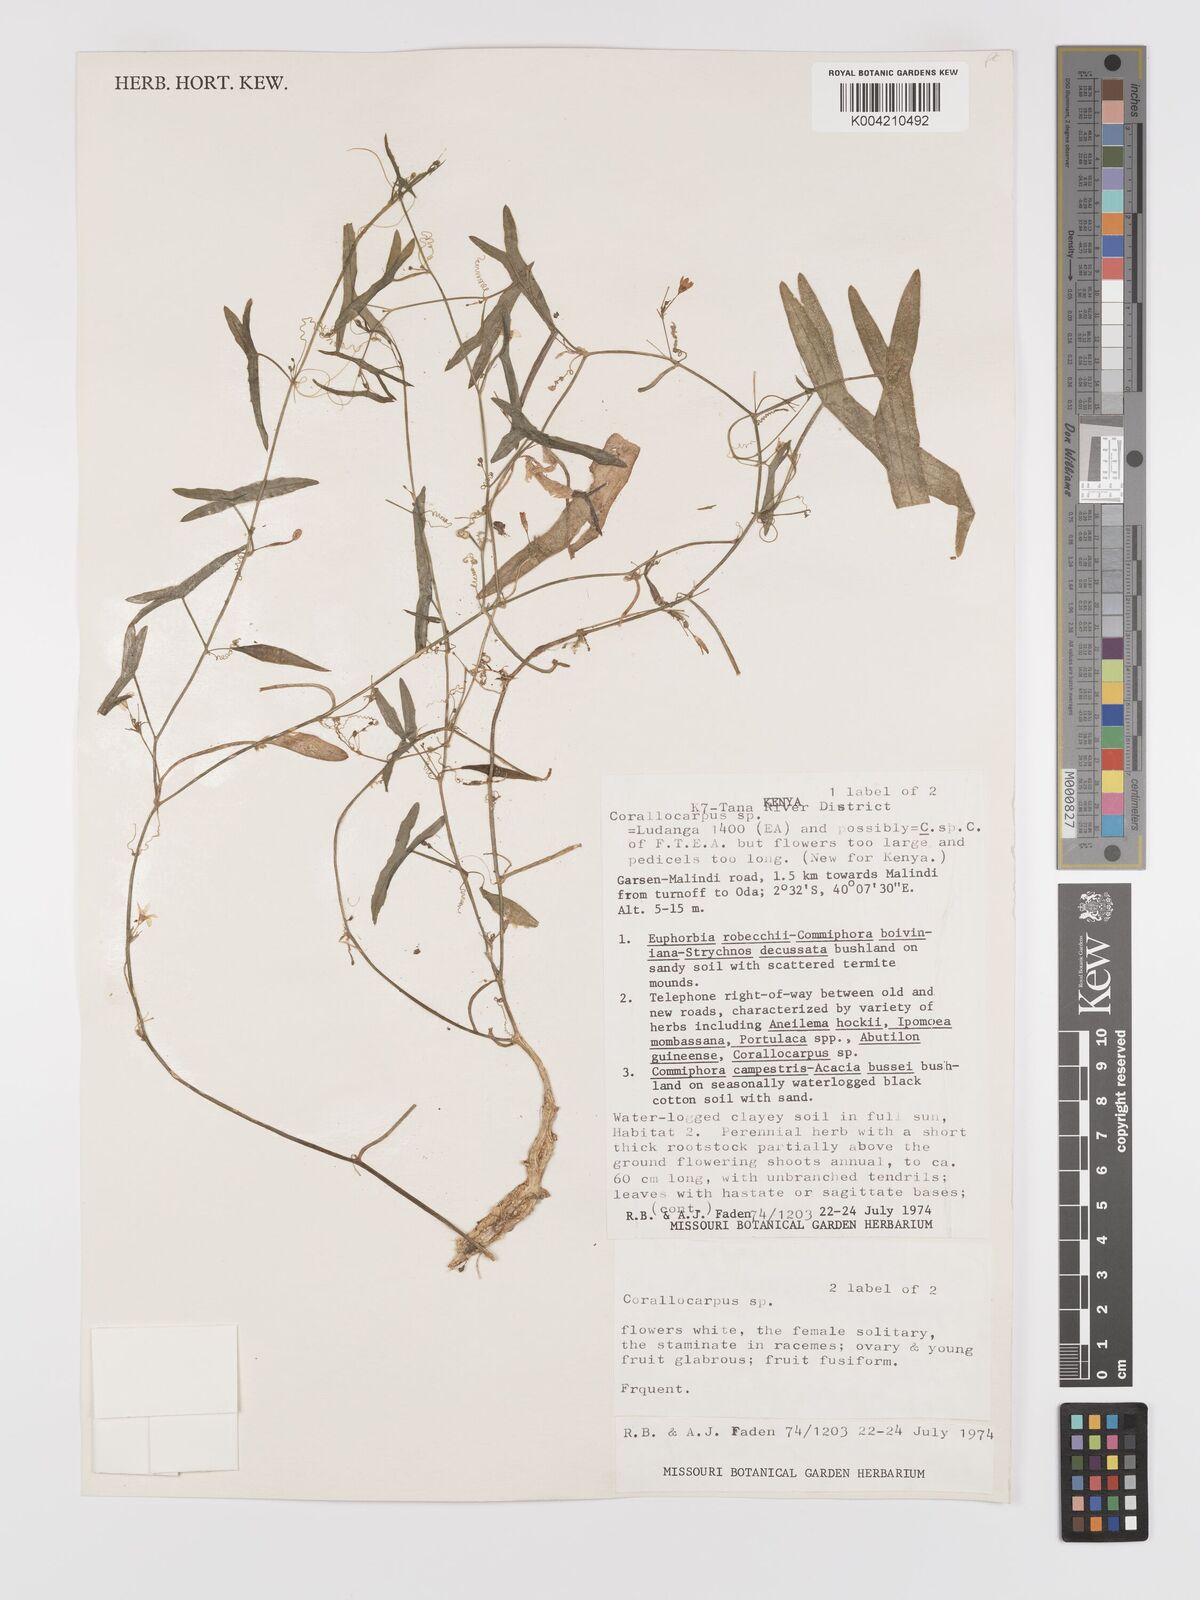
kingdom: Plantae
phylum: Tracheophyta
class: Magnoliopsida
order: Cucurbitales
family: Cucurbitaceae
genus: Zehneria
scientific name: Zehneria peneyana
